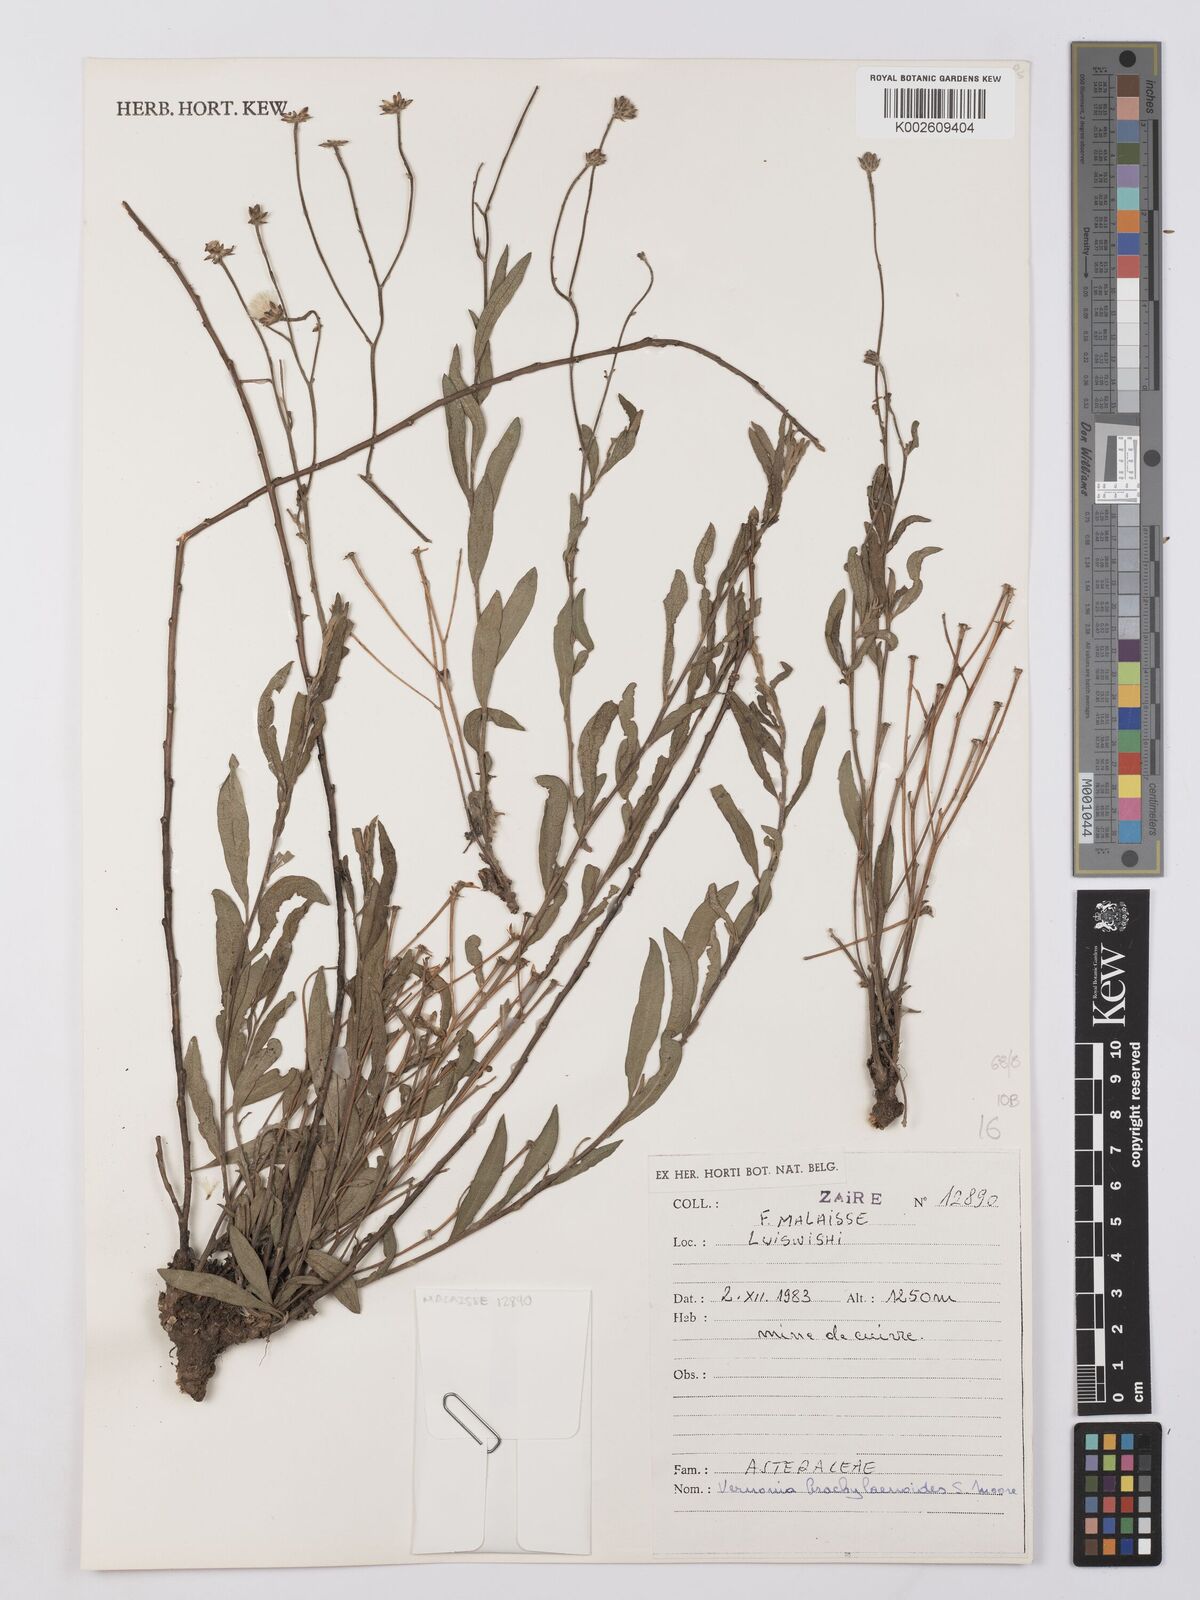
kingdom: Plantae
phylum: Tracheophyta
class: Magnoliopsida
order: Asterales
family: Asteraceae
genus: Gymnanthemum
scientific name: Gymnanthemum glaberrimum
